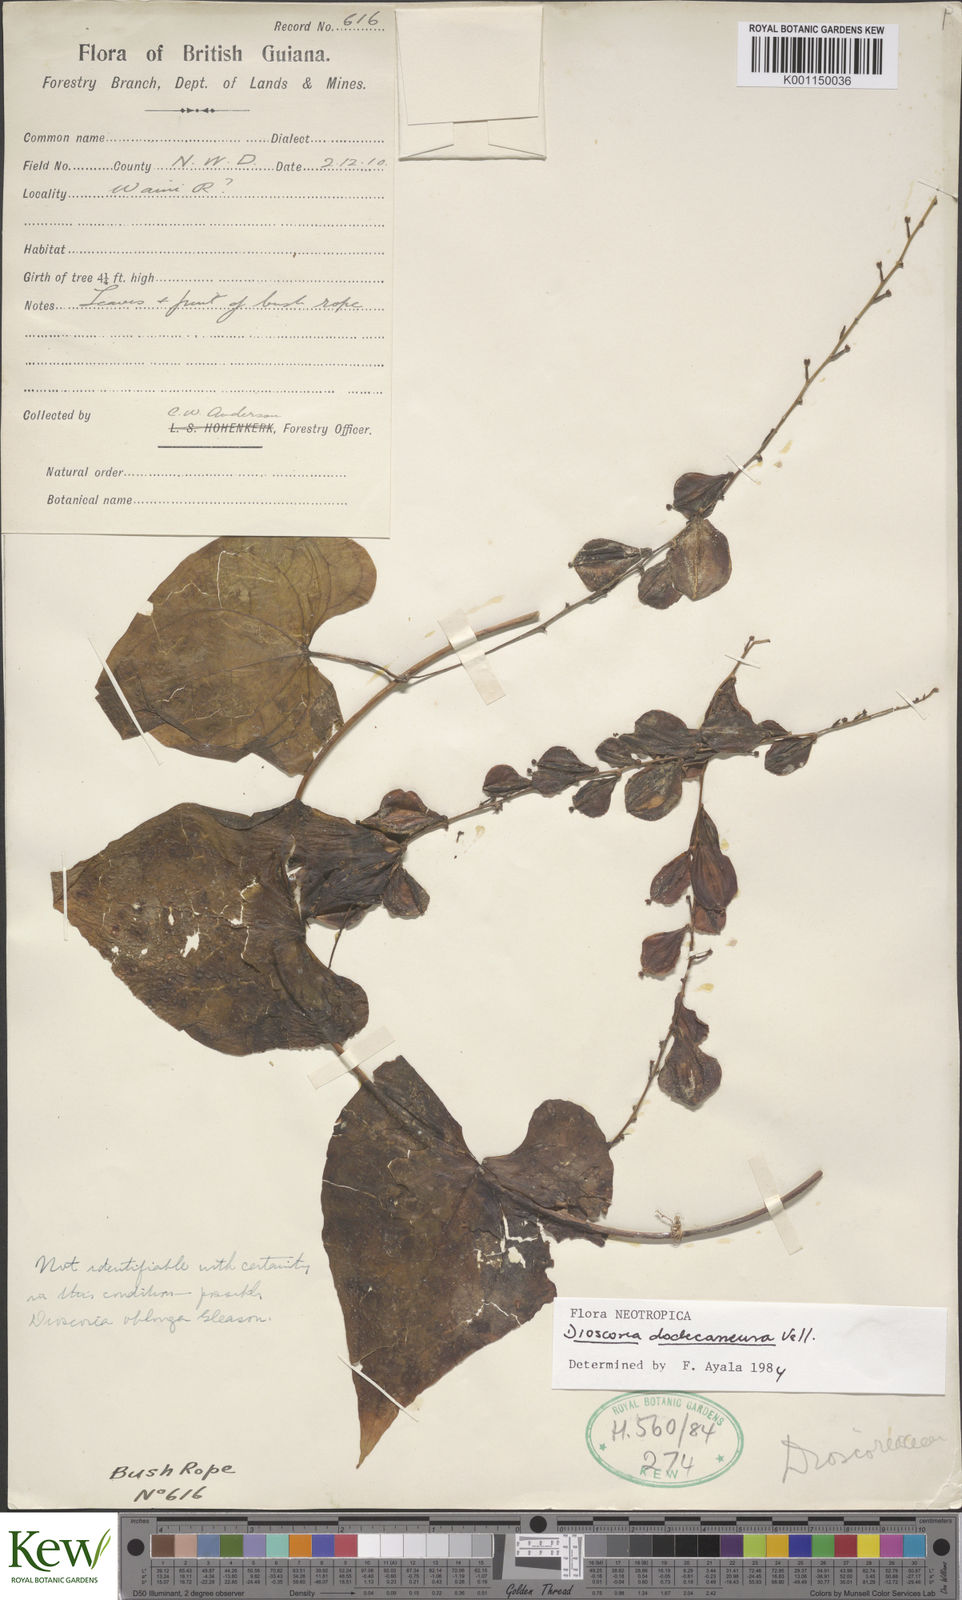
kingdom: Plantae
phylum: Tracheophyta
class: Liliopsida
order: Dioscoreales
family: Dioscoreaceae
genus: Dioscorea
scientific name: Dioscorea dodecaneura
